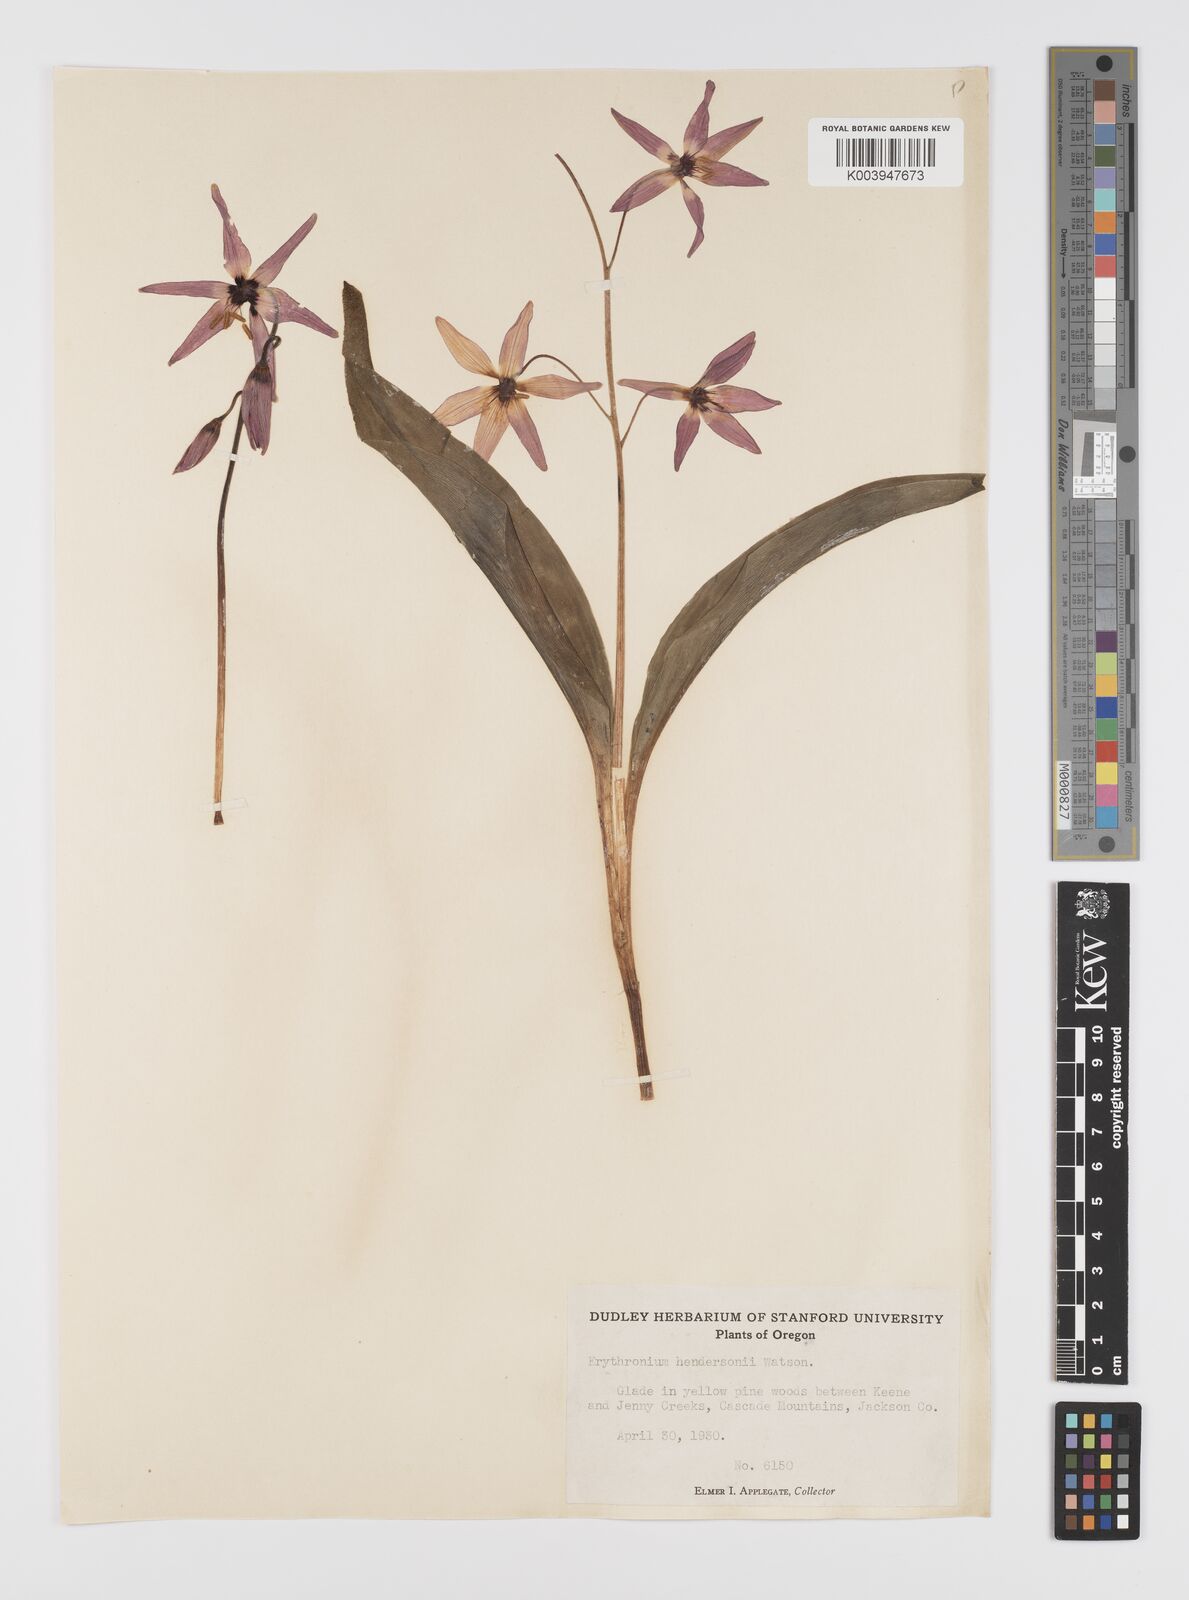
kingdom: Plantae
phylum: Tracheophyta
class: Liliopsida
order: Liliales
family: Liliaceae
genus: Erythronium
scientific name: Erythronium hendersonii
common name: Henderson's fawn-lily
